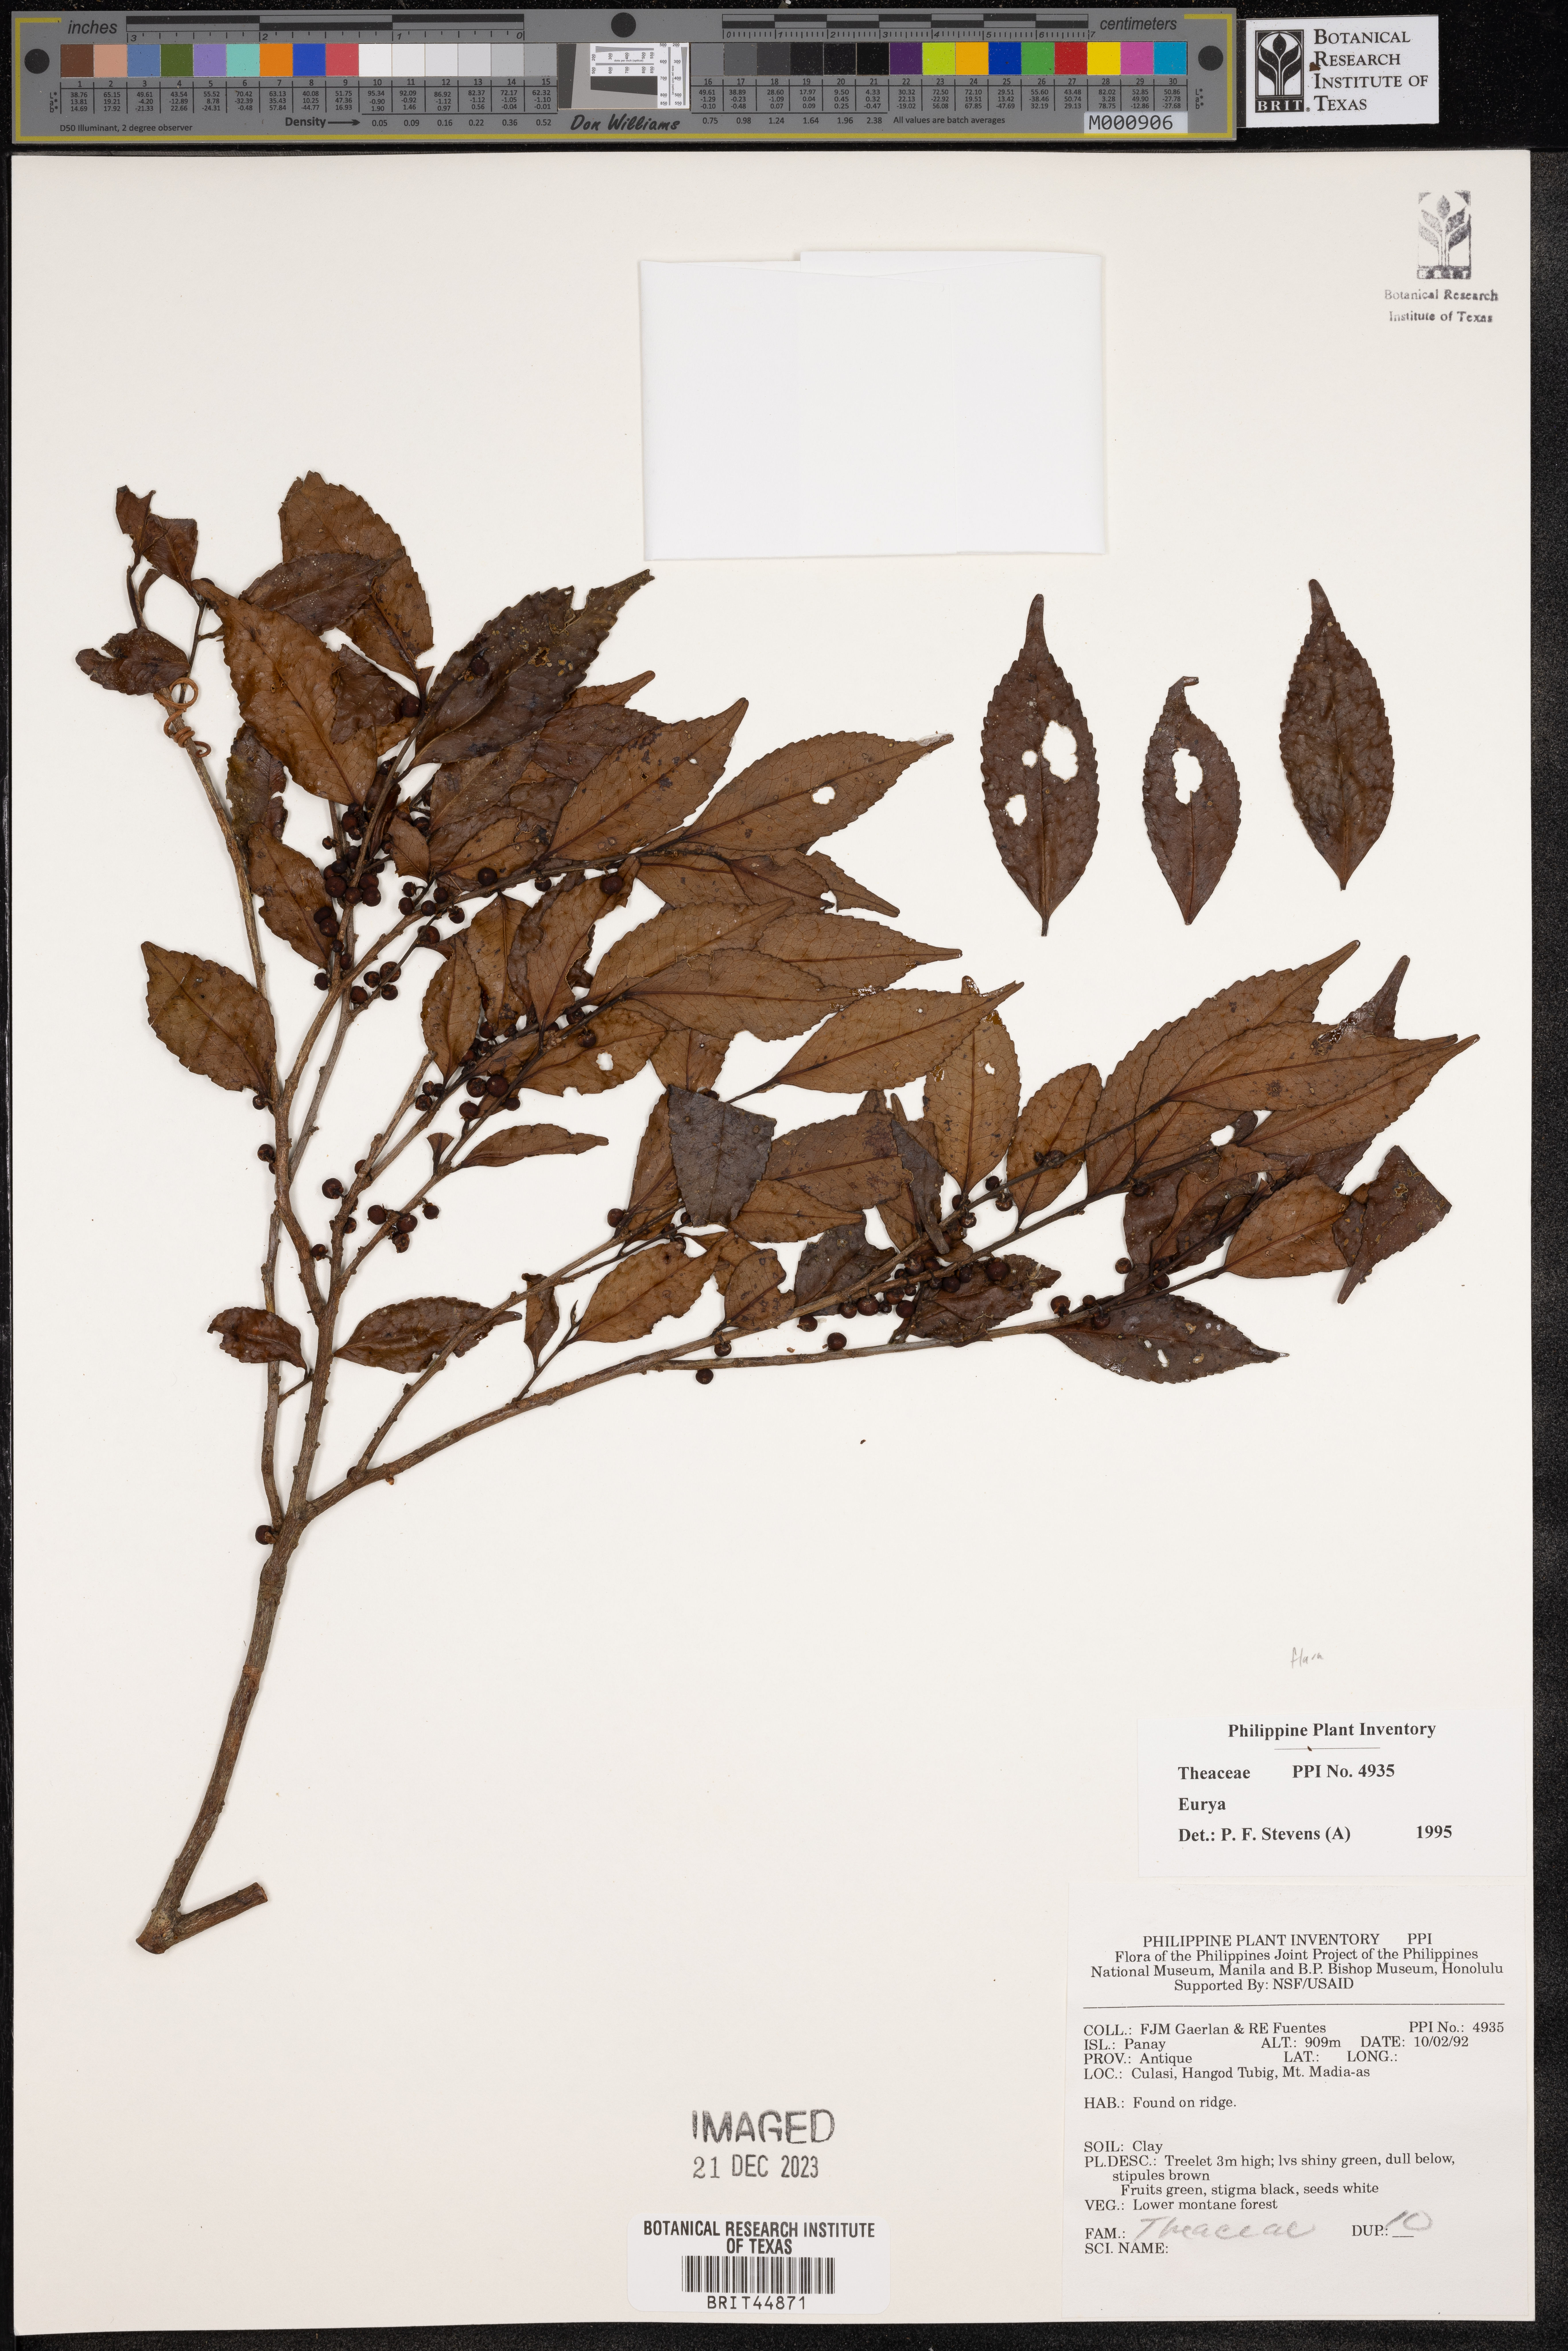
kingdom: Plantae
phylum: Tracheophyta
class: Magnoliopsida
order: Ericales
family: Pentaphylacaceae
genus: Eurya
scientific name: Eurya
